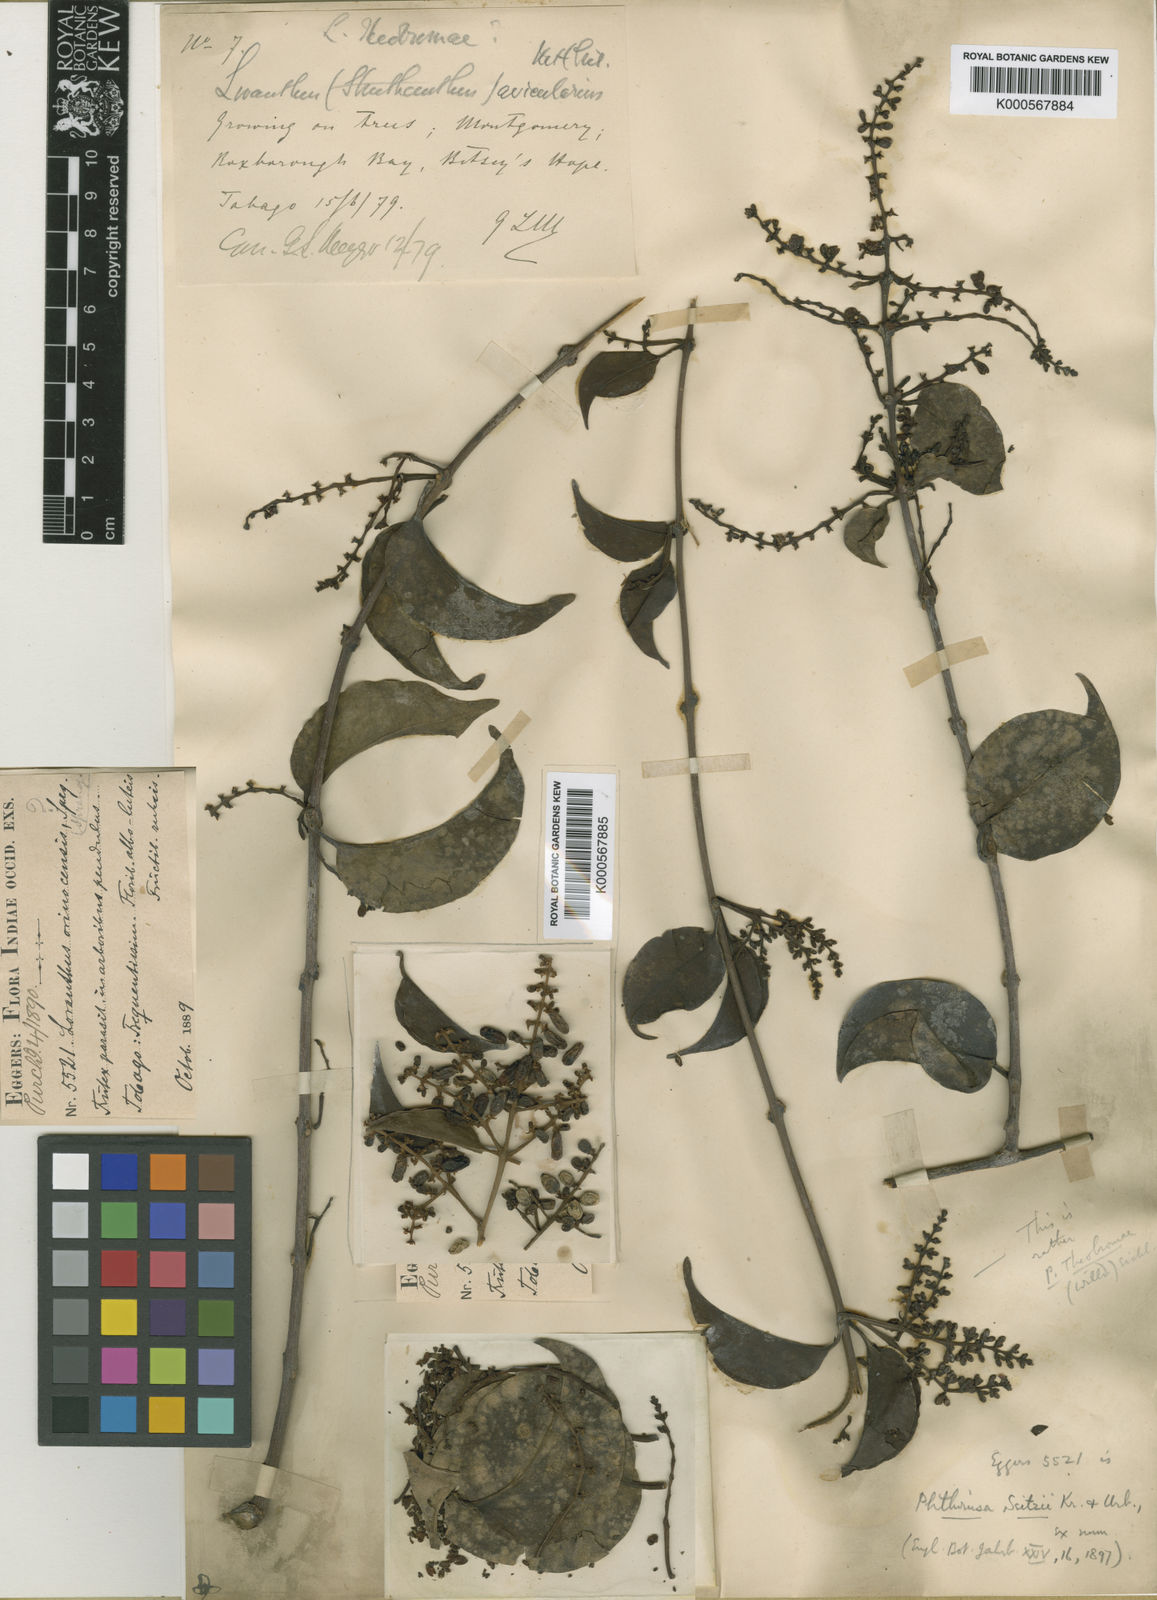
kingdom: Plantae
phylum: Tracheophyta
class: Magnoliopsida
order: Santalales
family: Loranthaceae
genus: Passovia
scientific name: Passovia pedunculata
